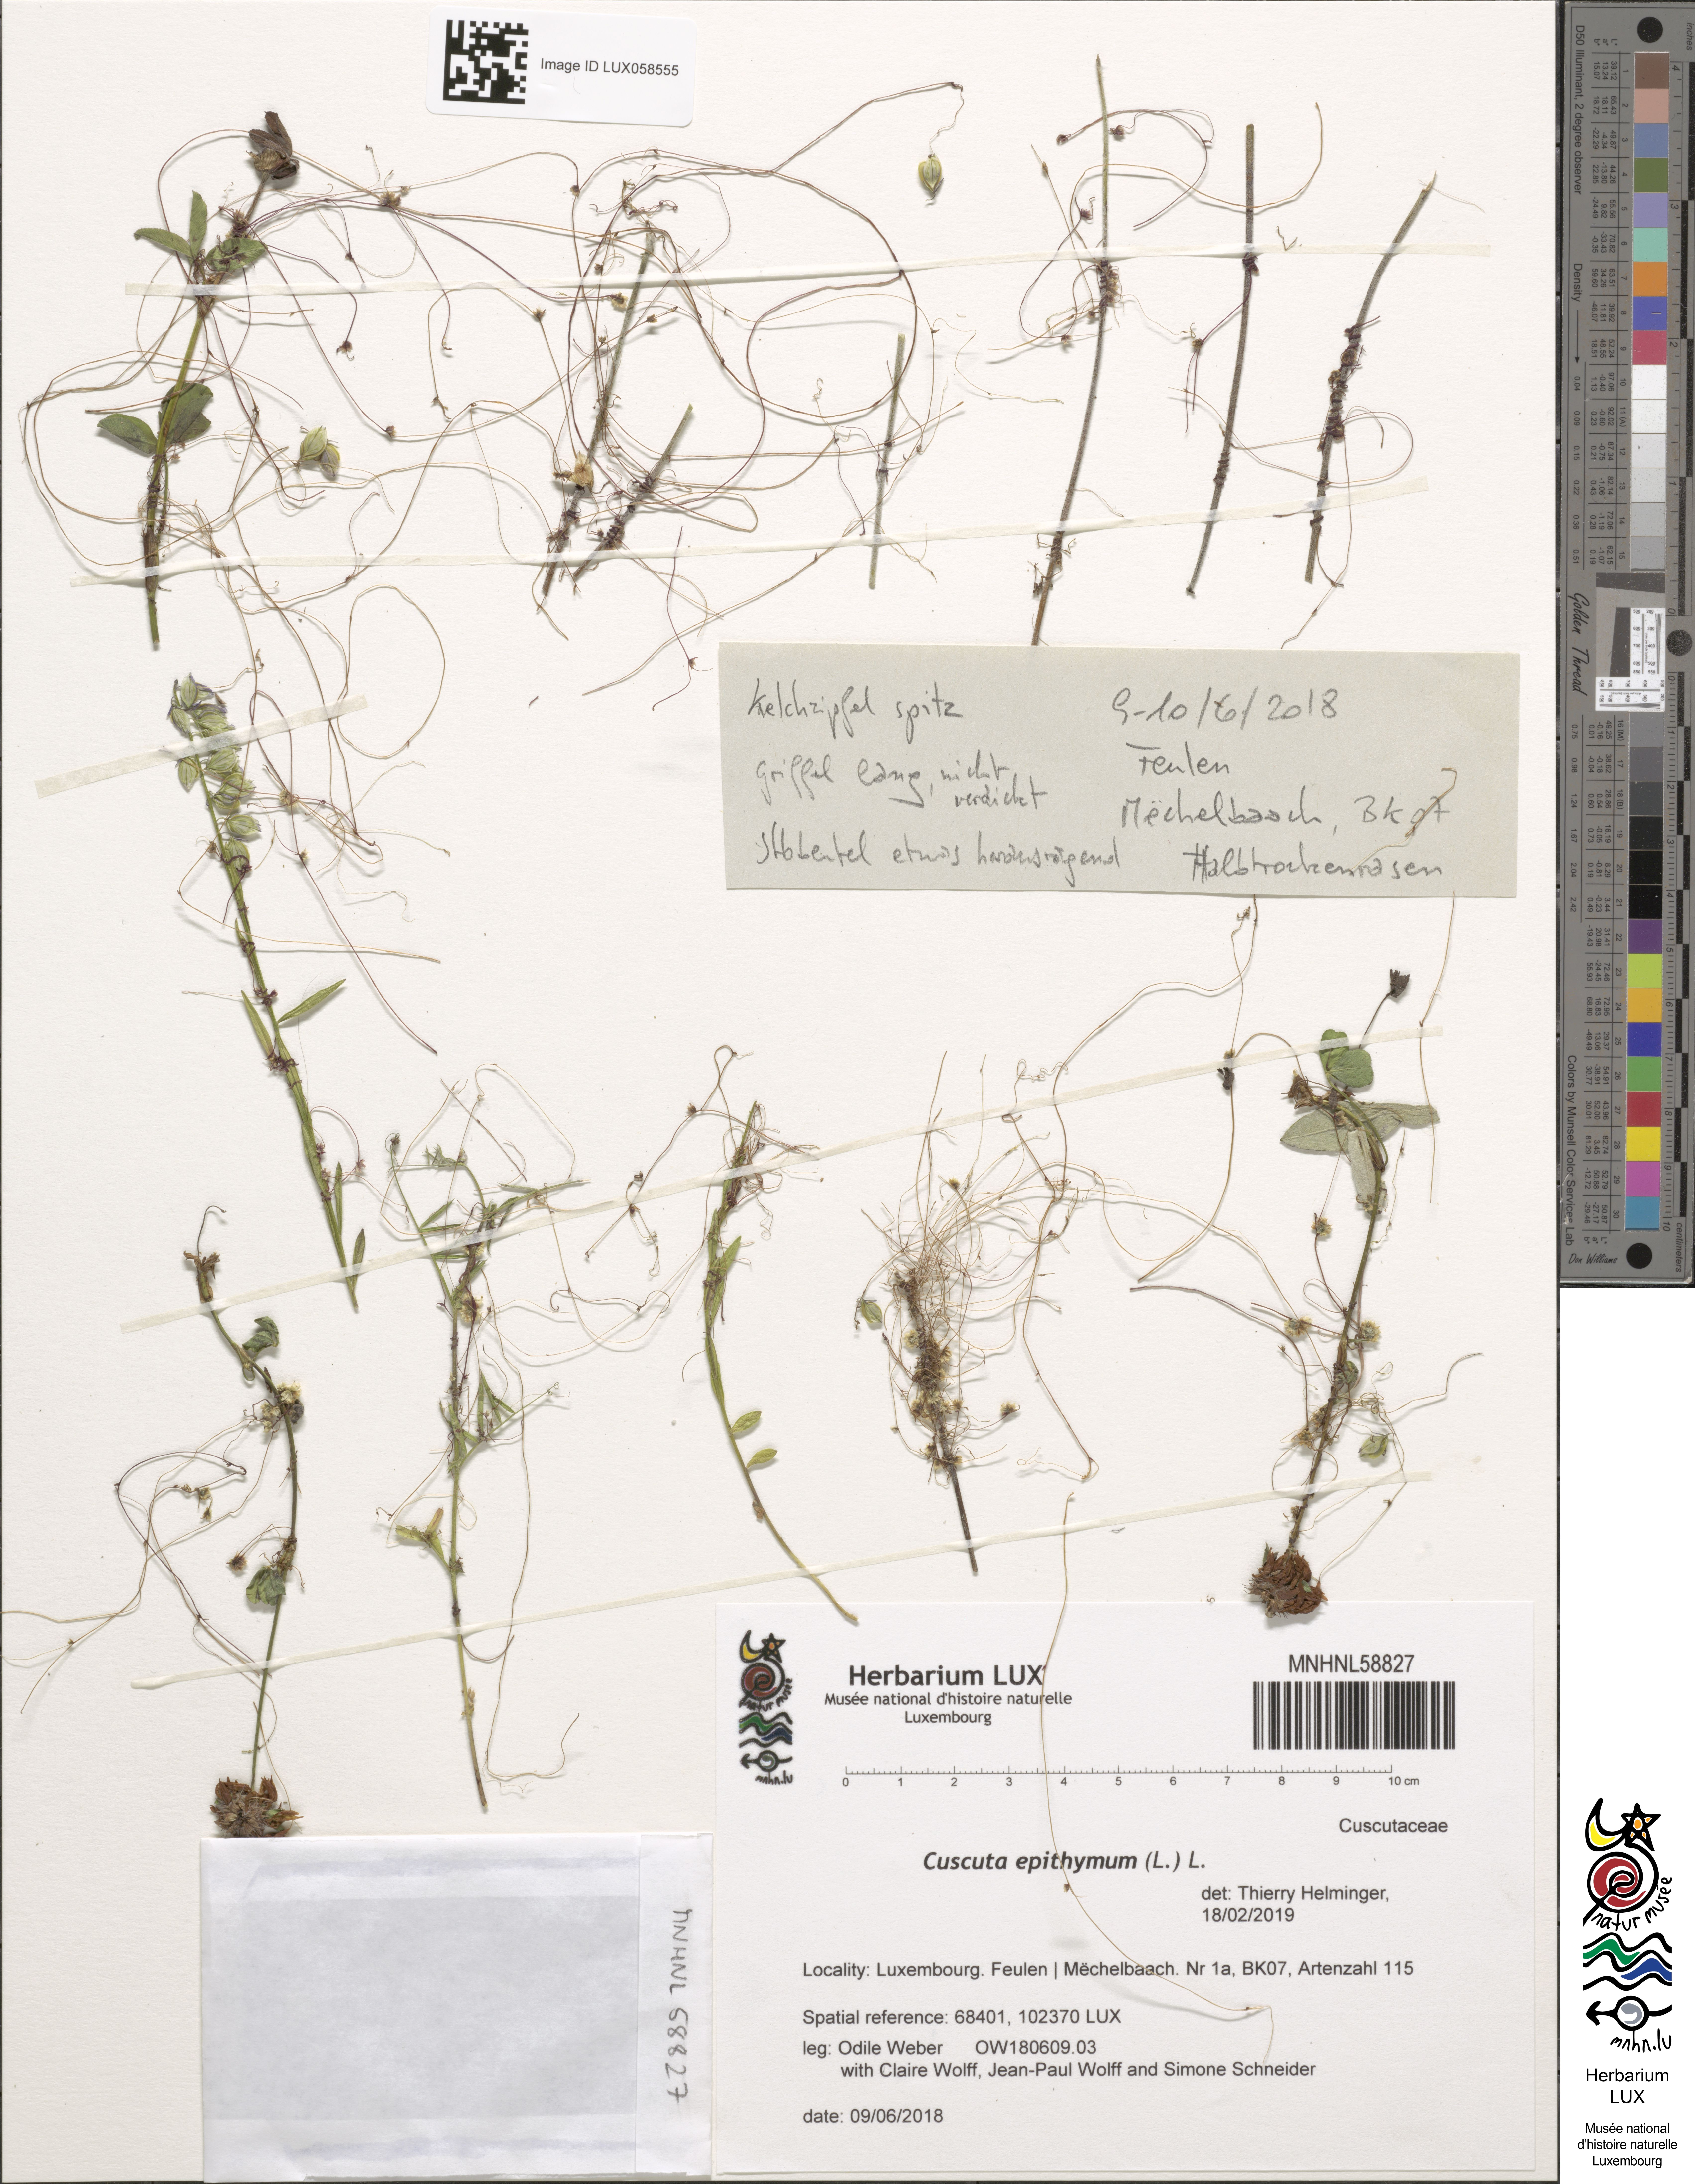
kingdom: Plantae
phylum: Tracheophyta
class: Magnoliopsida
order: Solanales
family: Convolvulaceae
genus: Cuscuta
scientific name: Cuscuta epithymum
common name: Clover dodder
